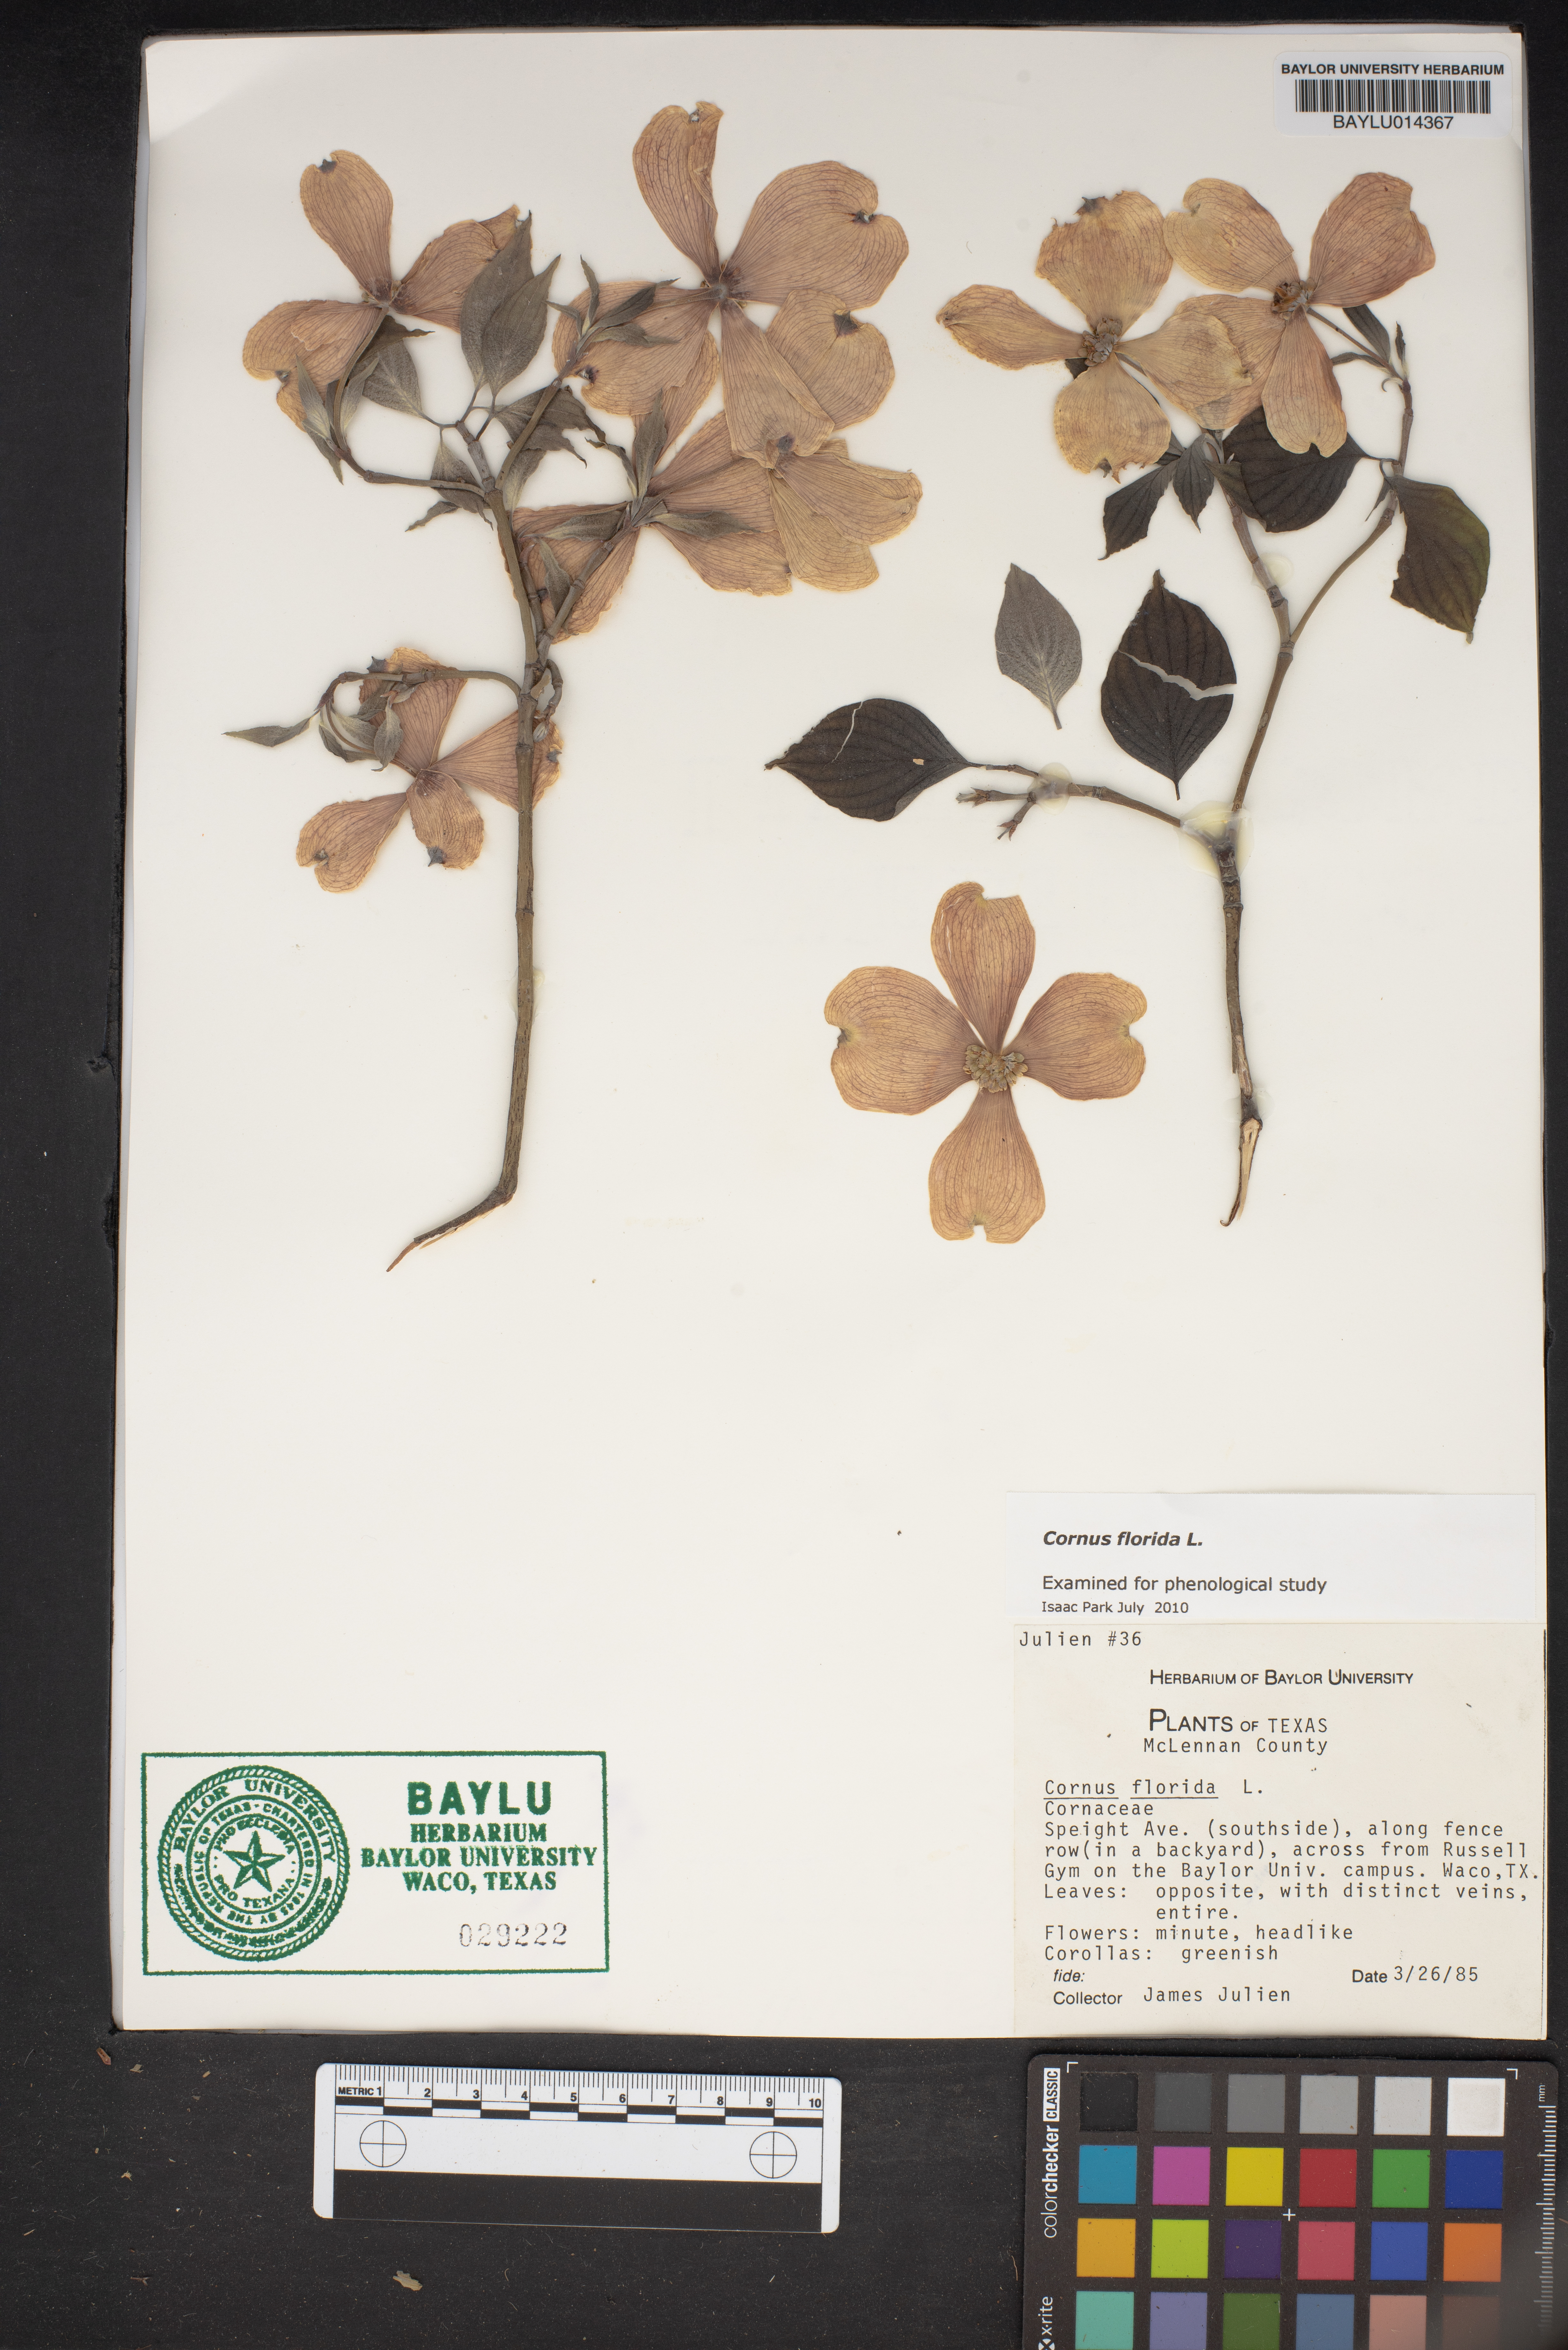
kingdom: Plantae
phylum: Tracheophyta
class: Magnoliopsida
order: Cornales
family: Cornaceae
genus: Cornus
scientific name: Cornus florida
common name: Flowering dogwood
